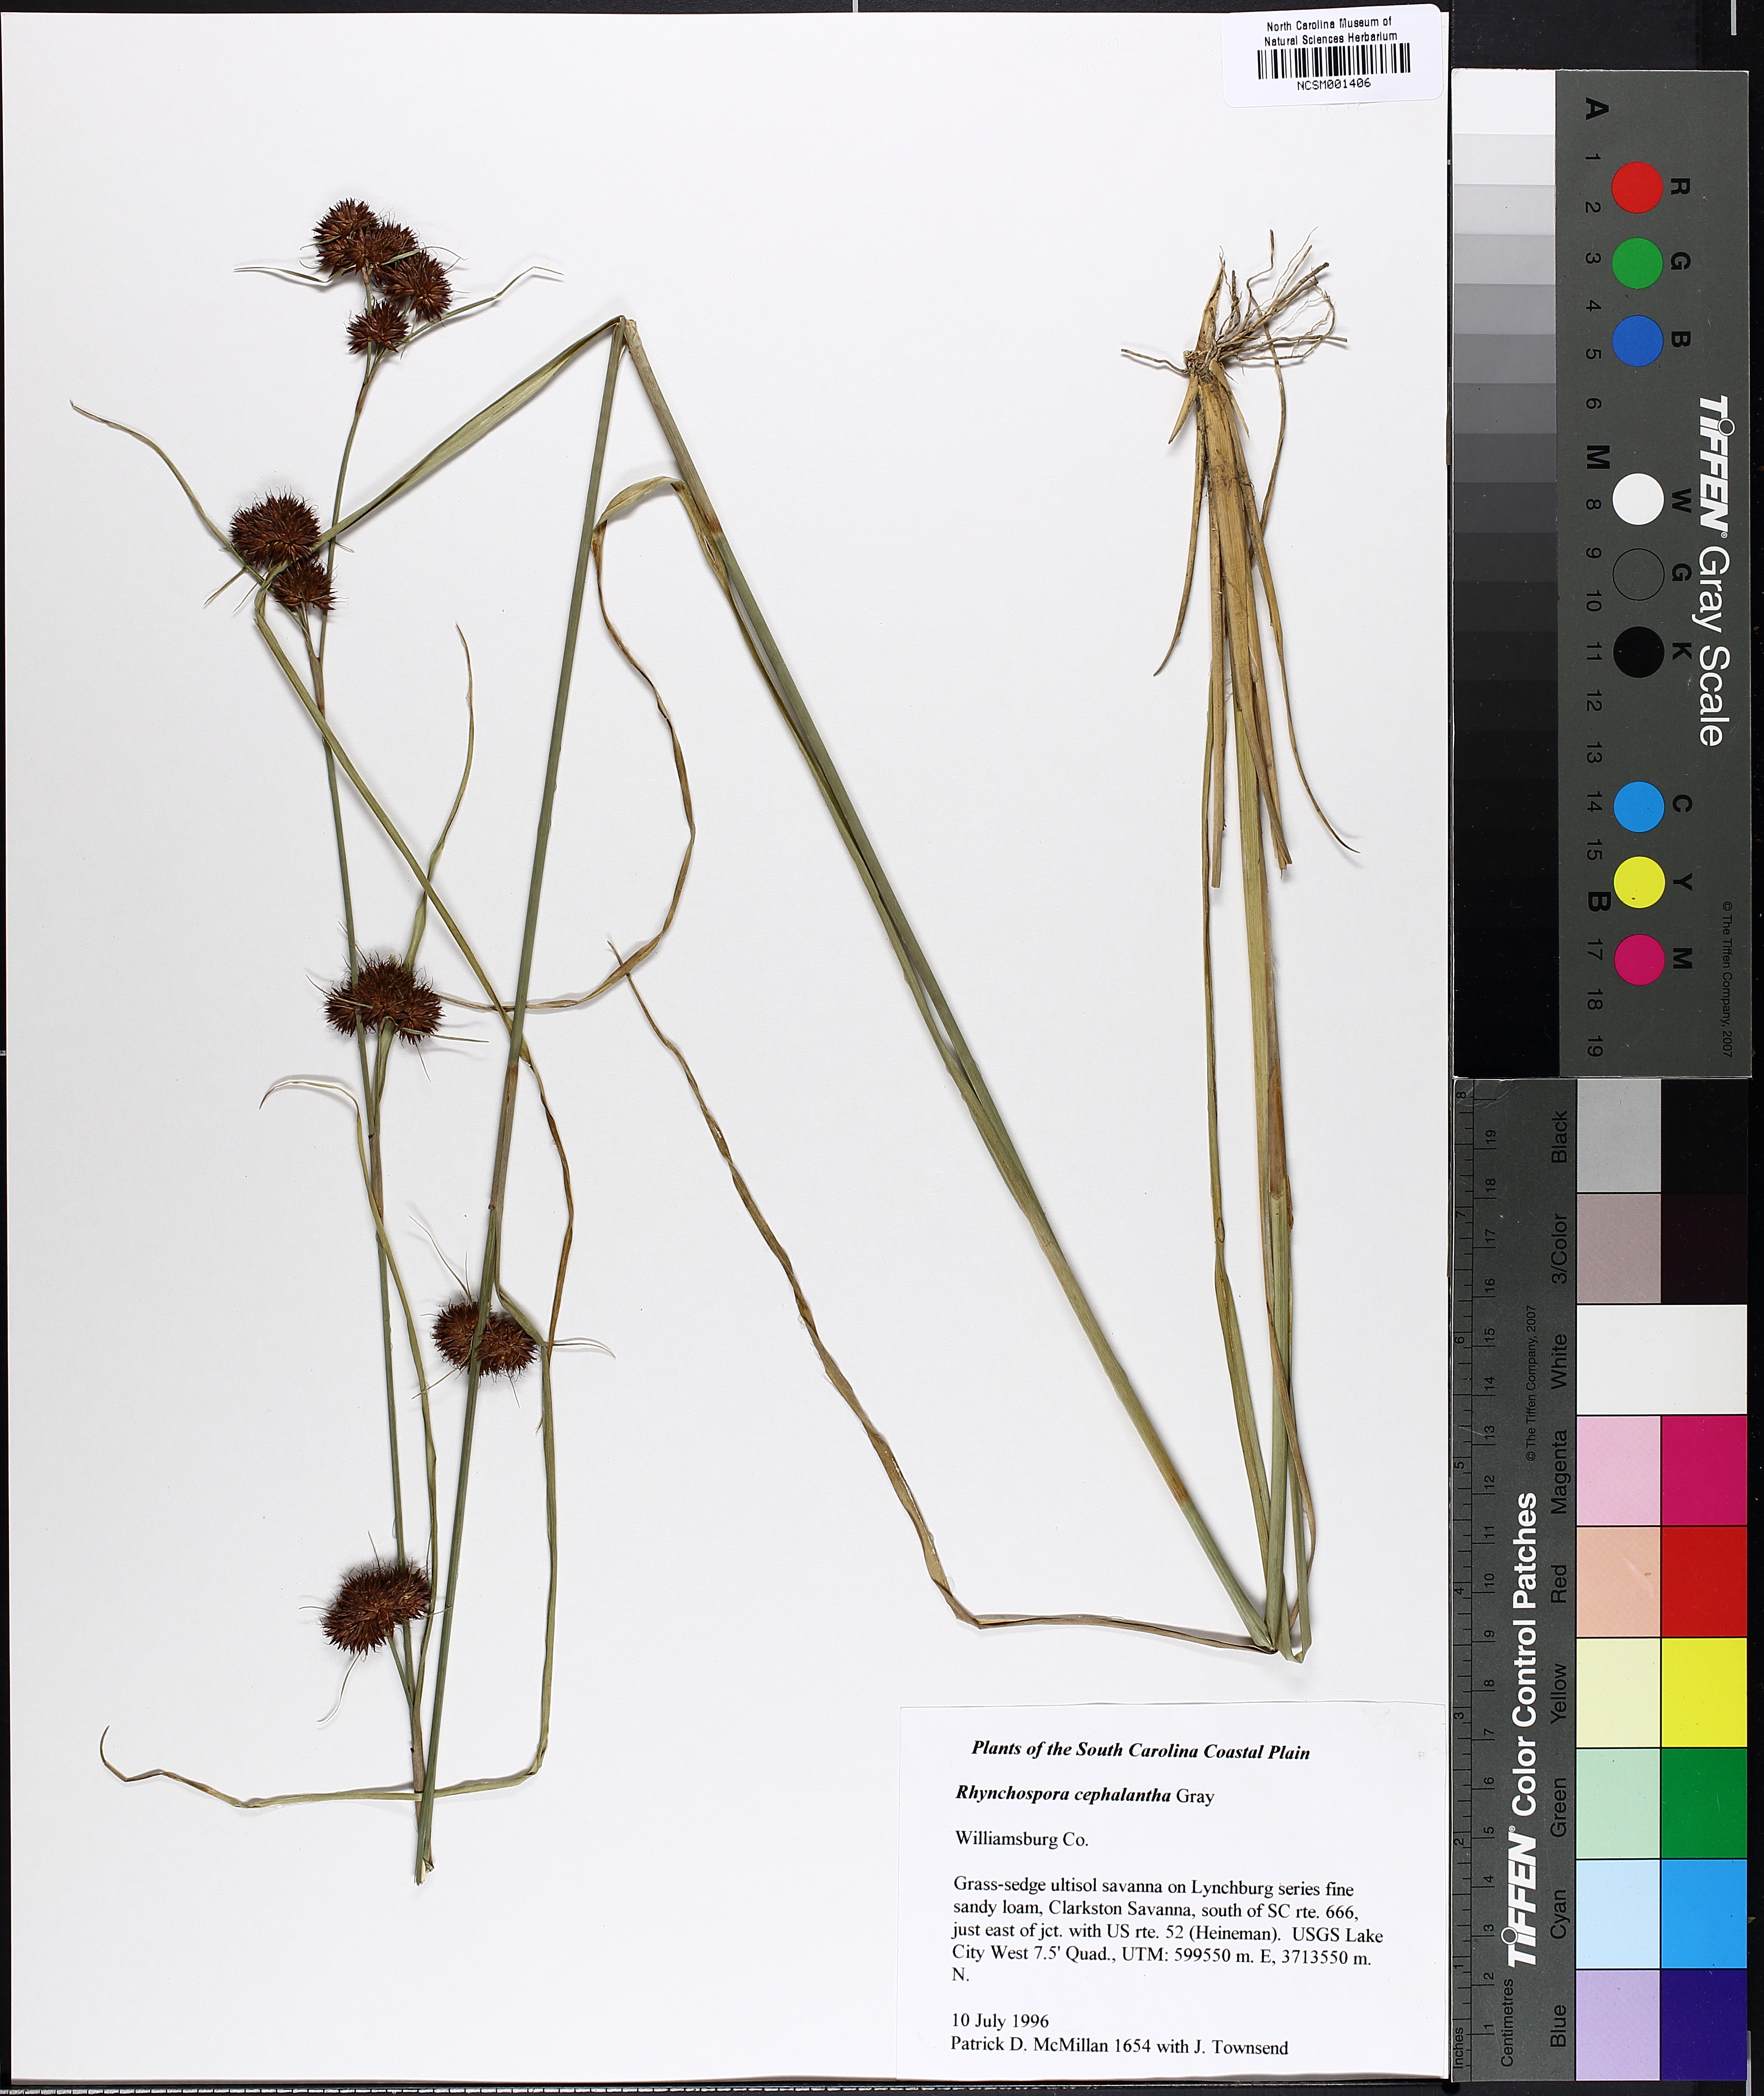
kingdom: Plantae
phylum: Tracheophyta
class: Liliopsida
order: Poales
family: Cyperaceae
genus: Rhynchospora
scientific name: Rhynchospora cephalantha
